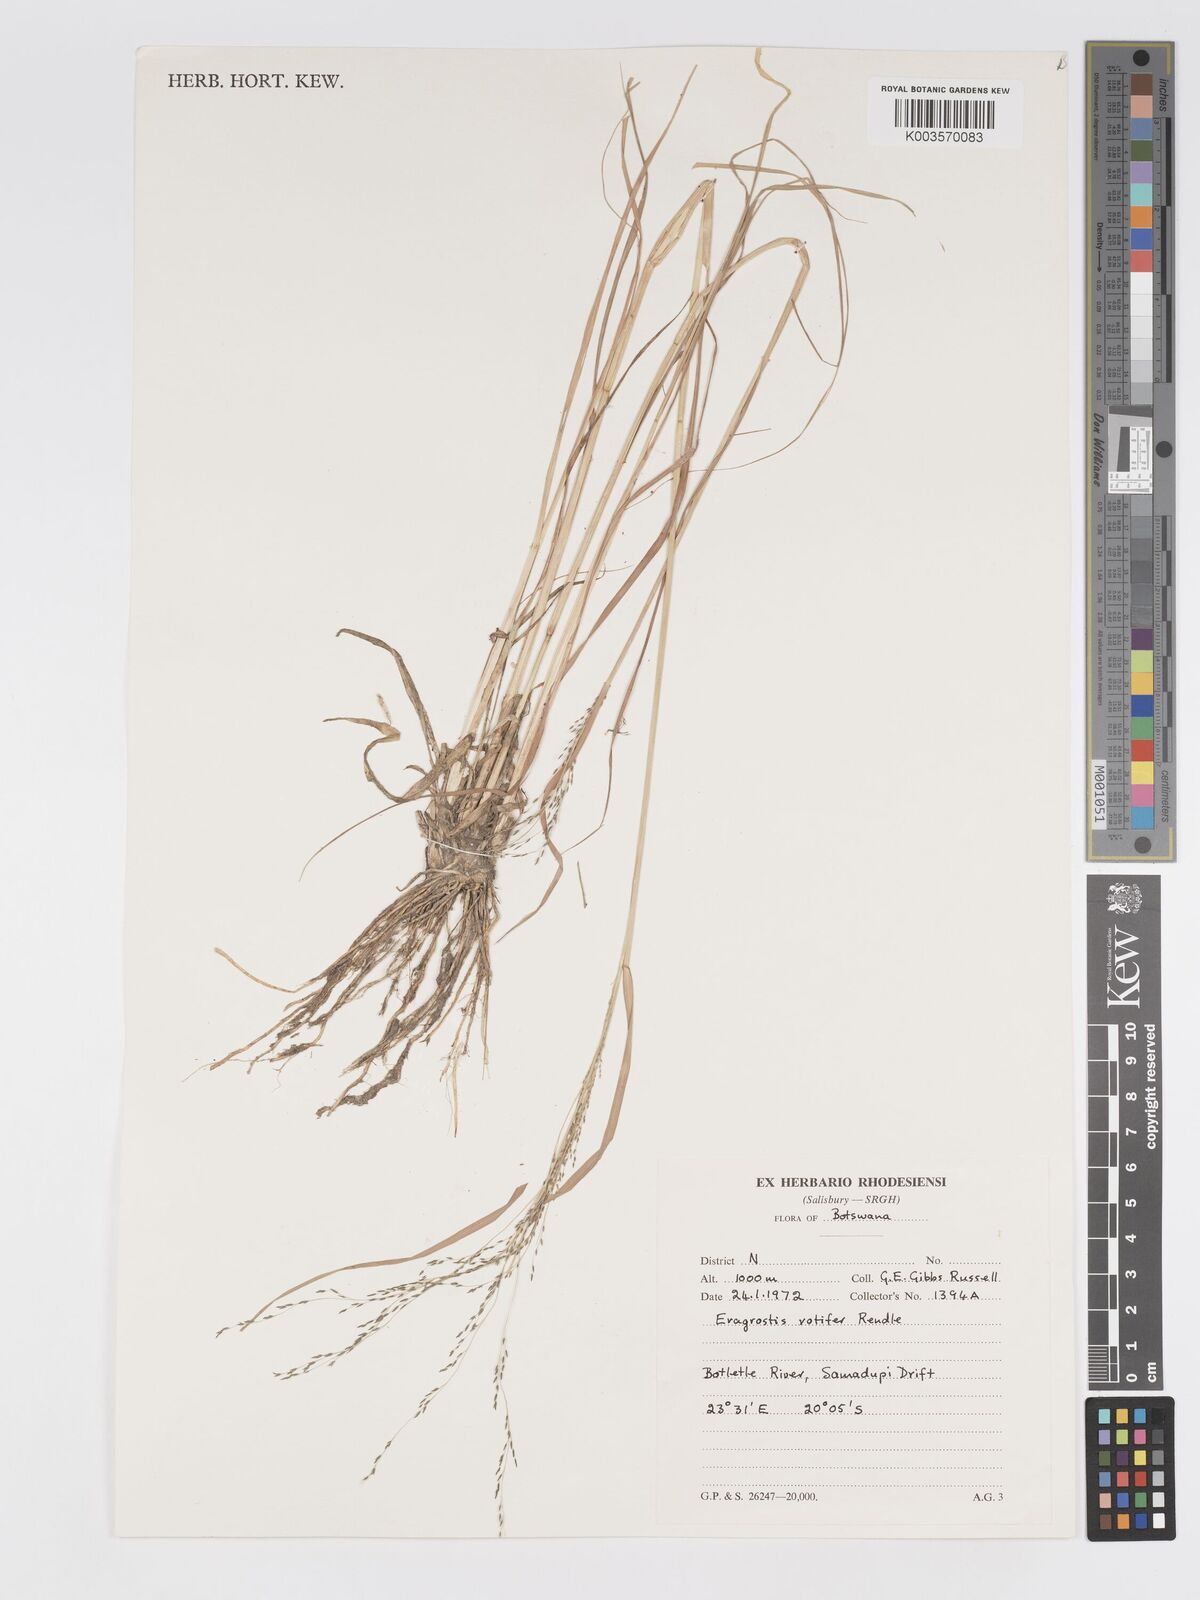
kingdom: Plantae
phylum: Tracheophyta
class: Liliopsida
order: Poales
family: Poaceae
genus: Eragrostis
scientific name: Eragrostis rotifer
